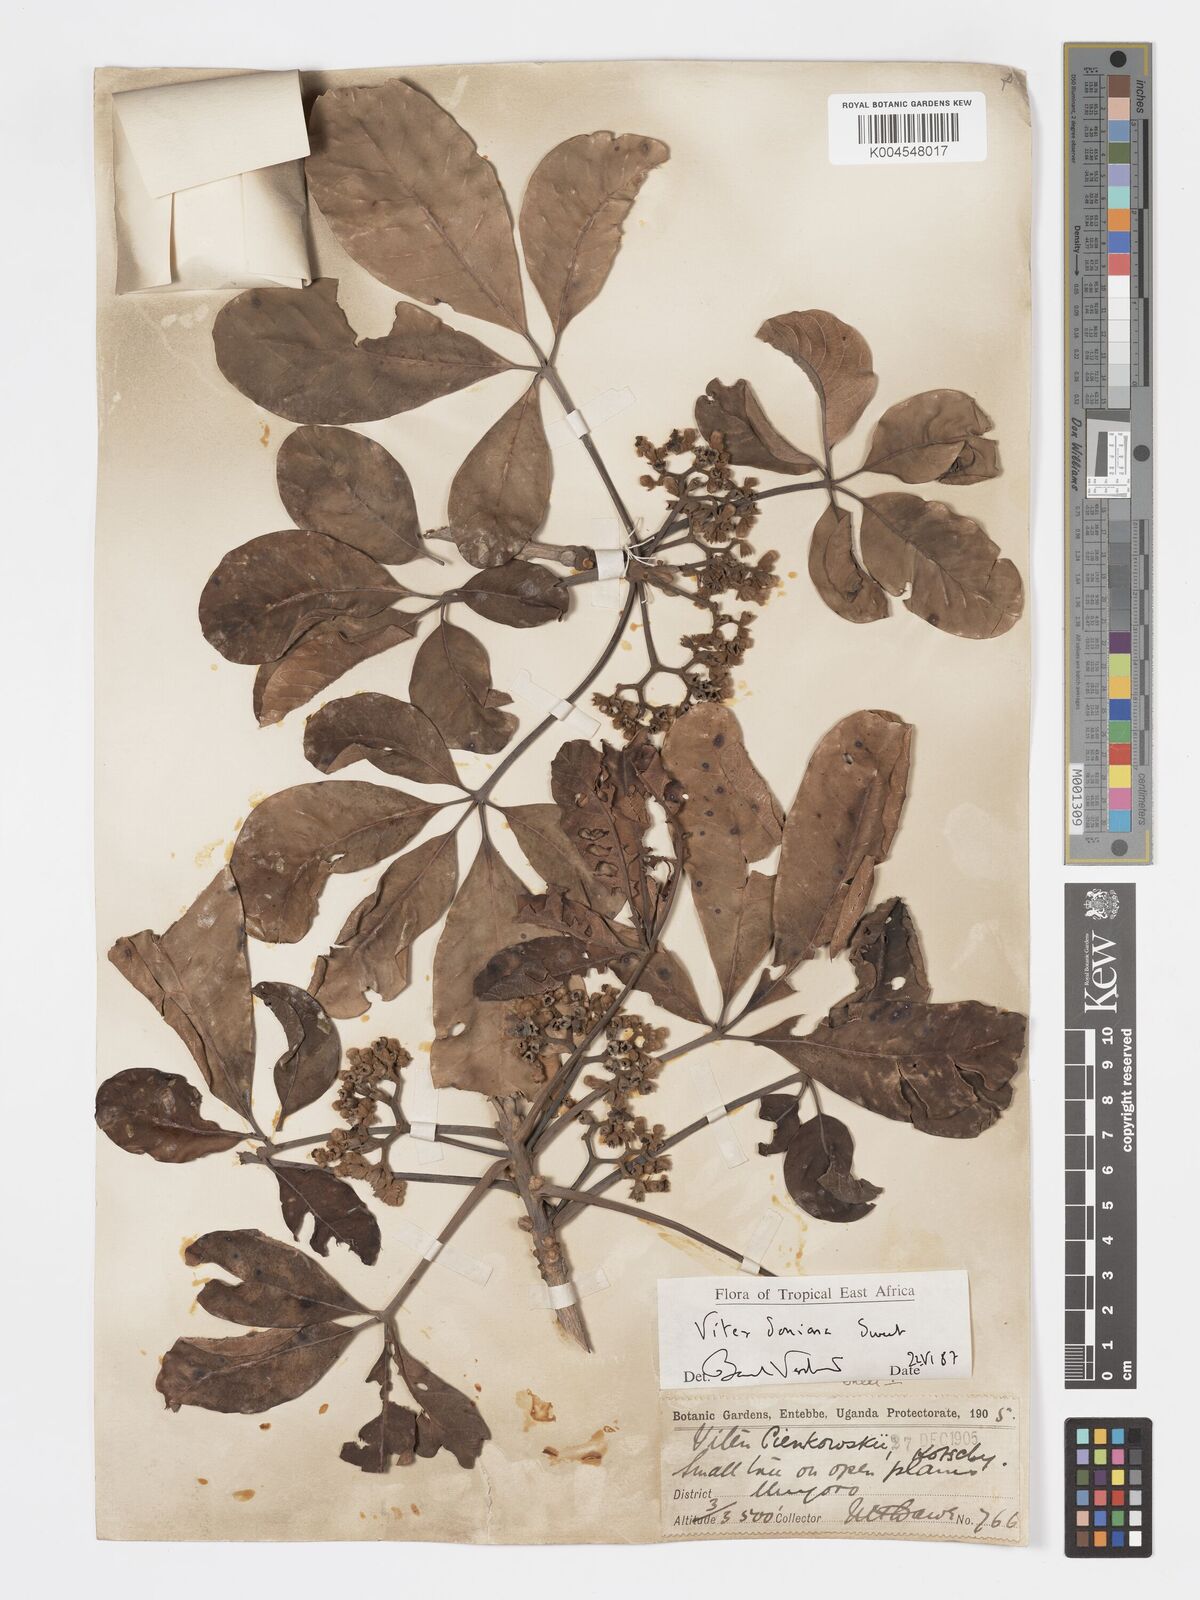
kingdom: Plantae
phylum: Tracheophyta
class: Magnoliopsida
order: Lamiales
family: Lamiaceae
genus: Vitex
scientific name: Vitex doniana
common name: Black plum
